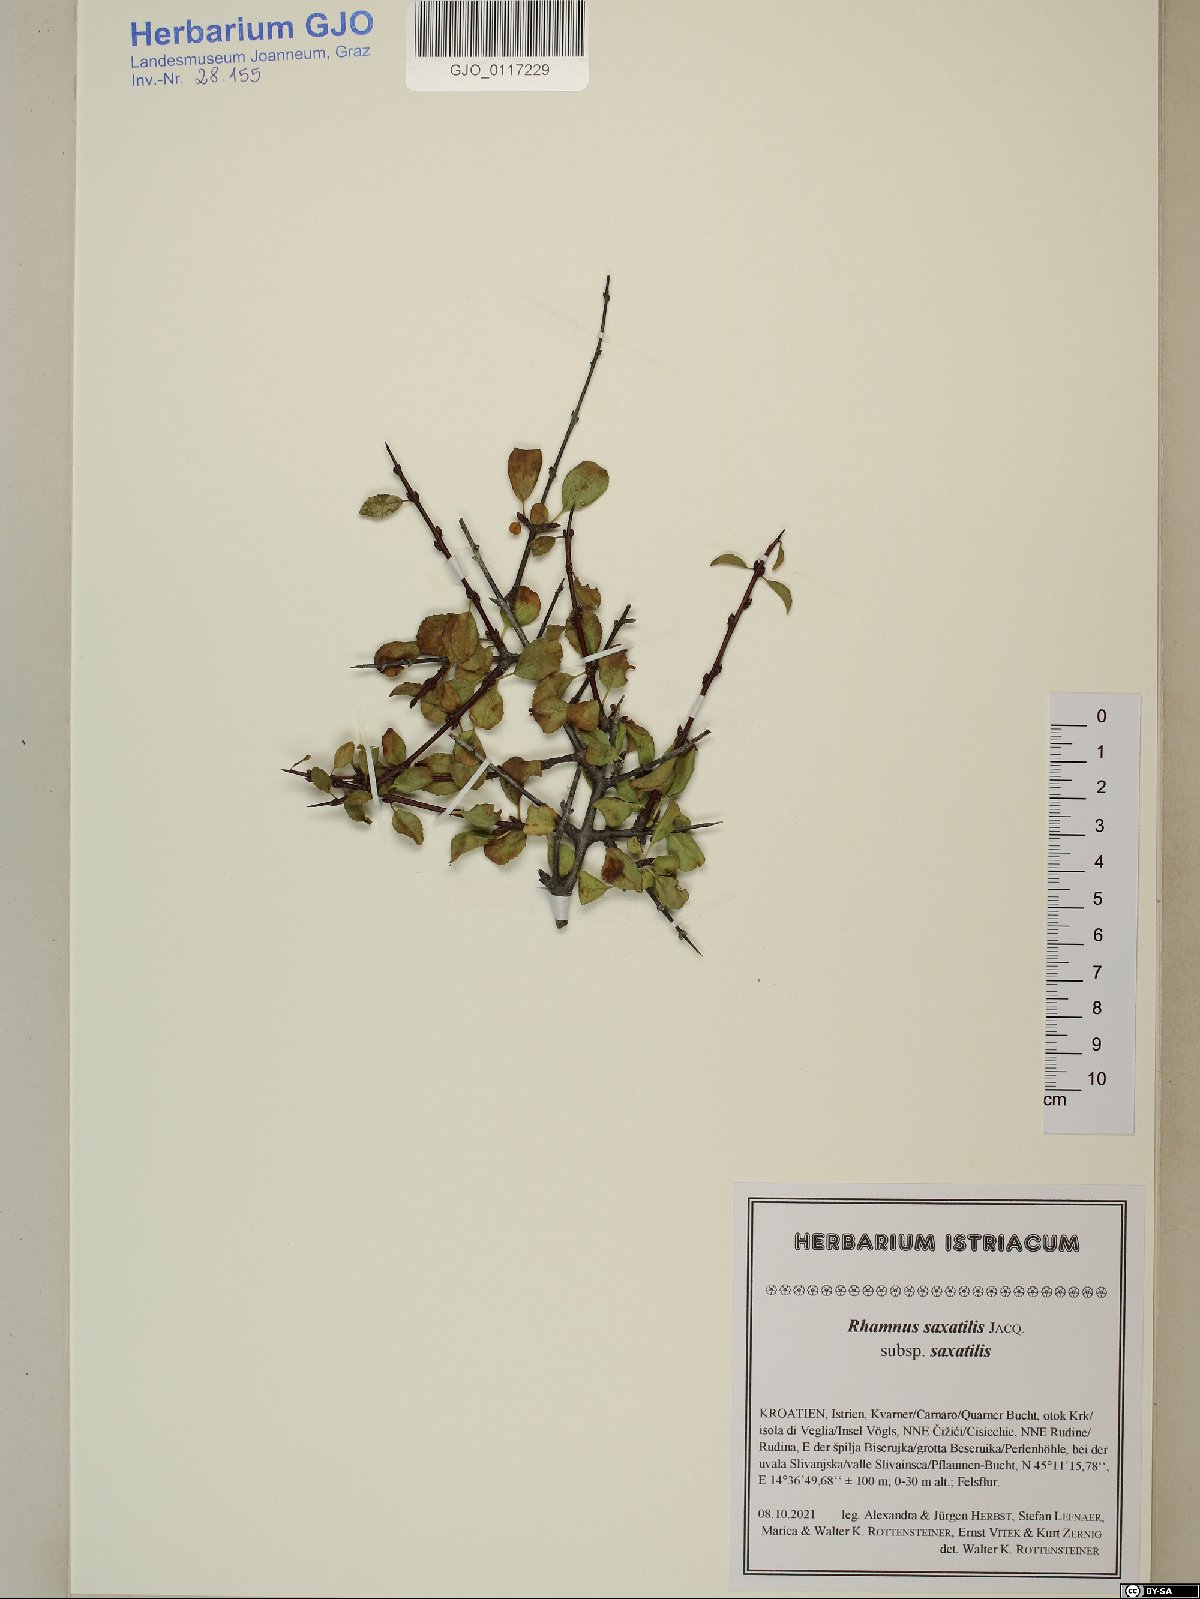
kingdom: Plantae
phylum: Tracheophyta
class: Magnoliopsida
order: Rosales
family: Rhamnaceae
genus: Rhamnus
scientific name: Rhamnus saxatilis
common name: Rock buckthorn
